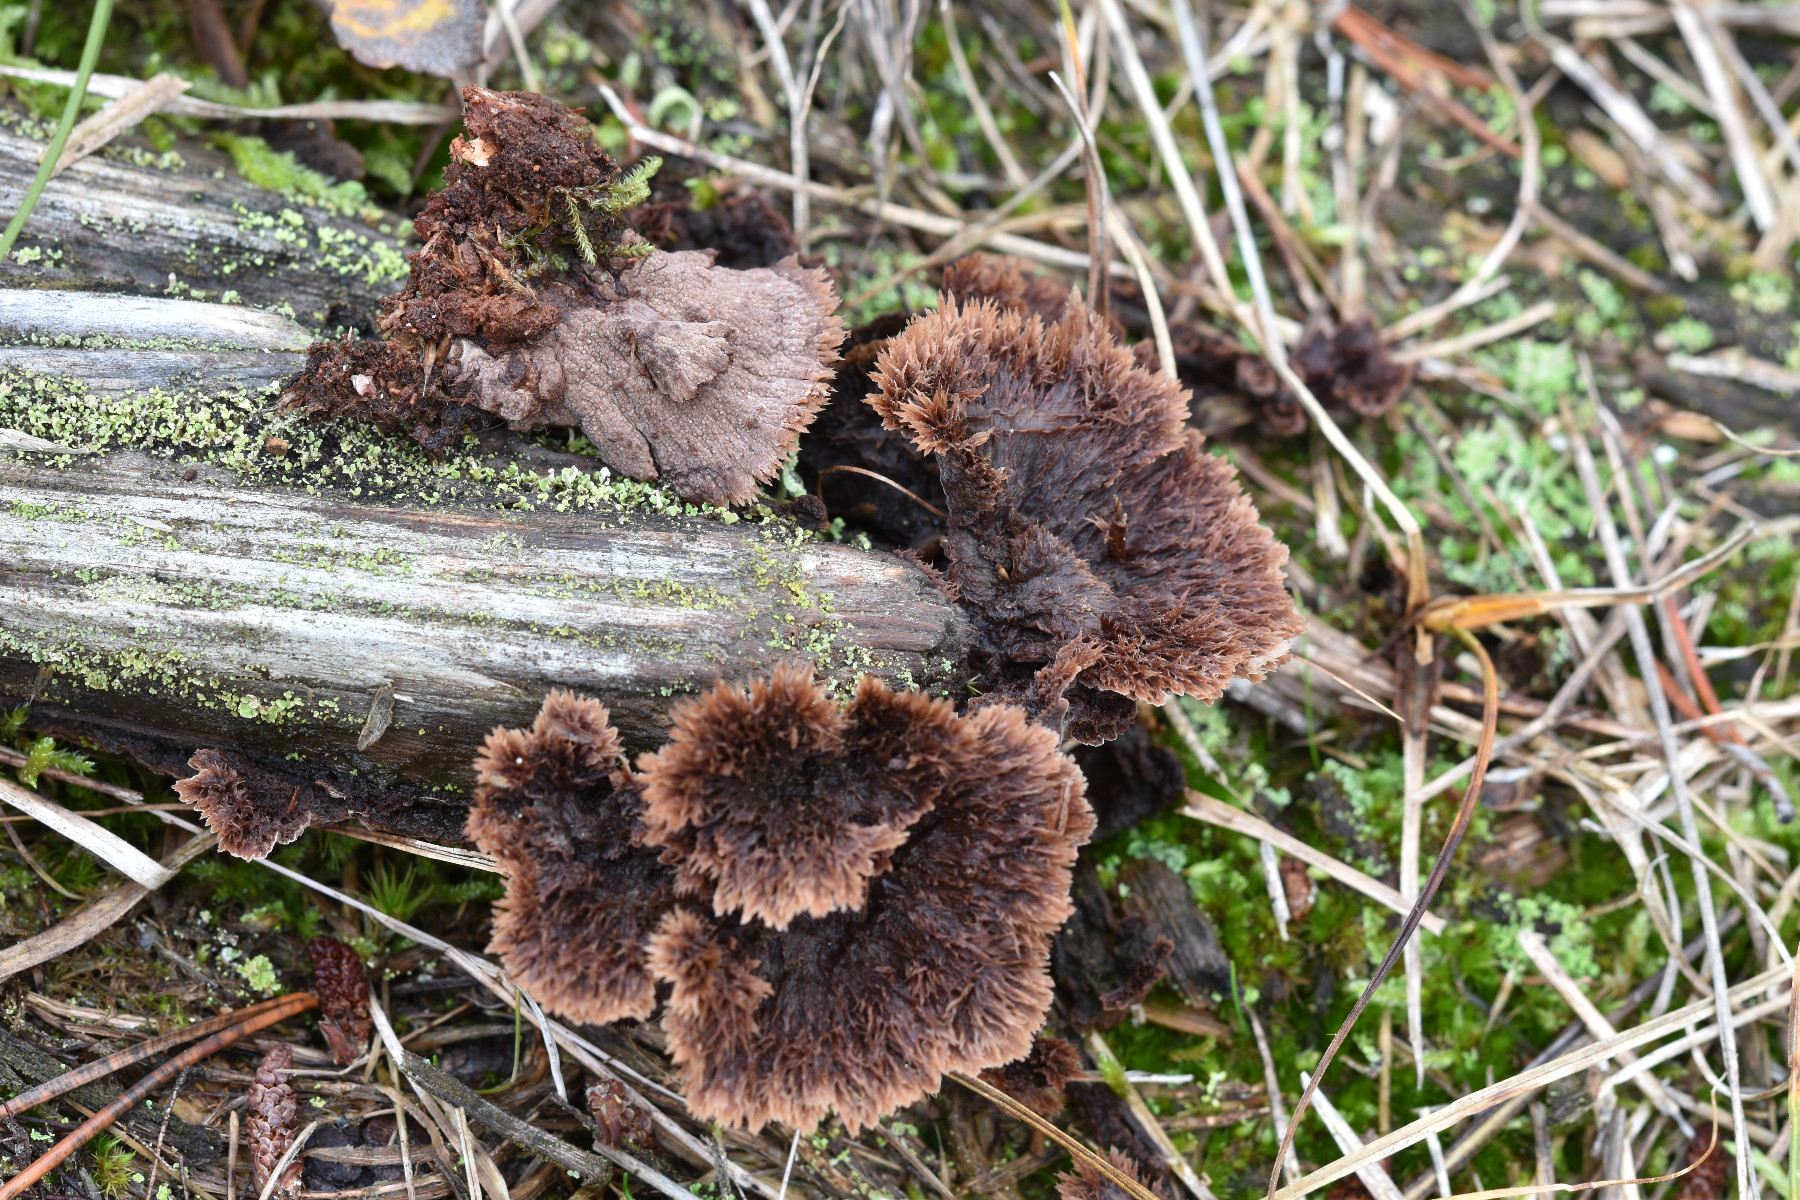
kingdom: Fungi
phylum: Basidiomycota
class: Agaricomycetes
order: Thelephorales
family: Thelephoraceae
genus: Thelephora
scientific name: Thelephora terrestris
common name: fliget frynsesvamp
